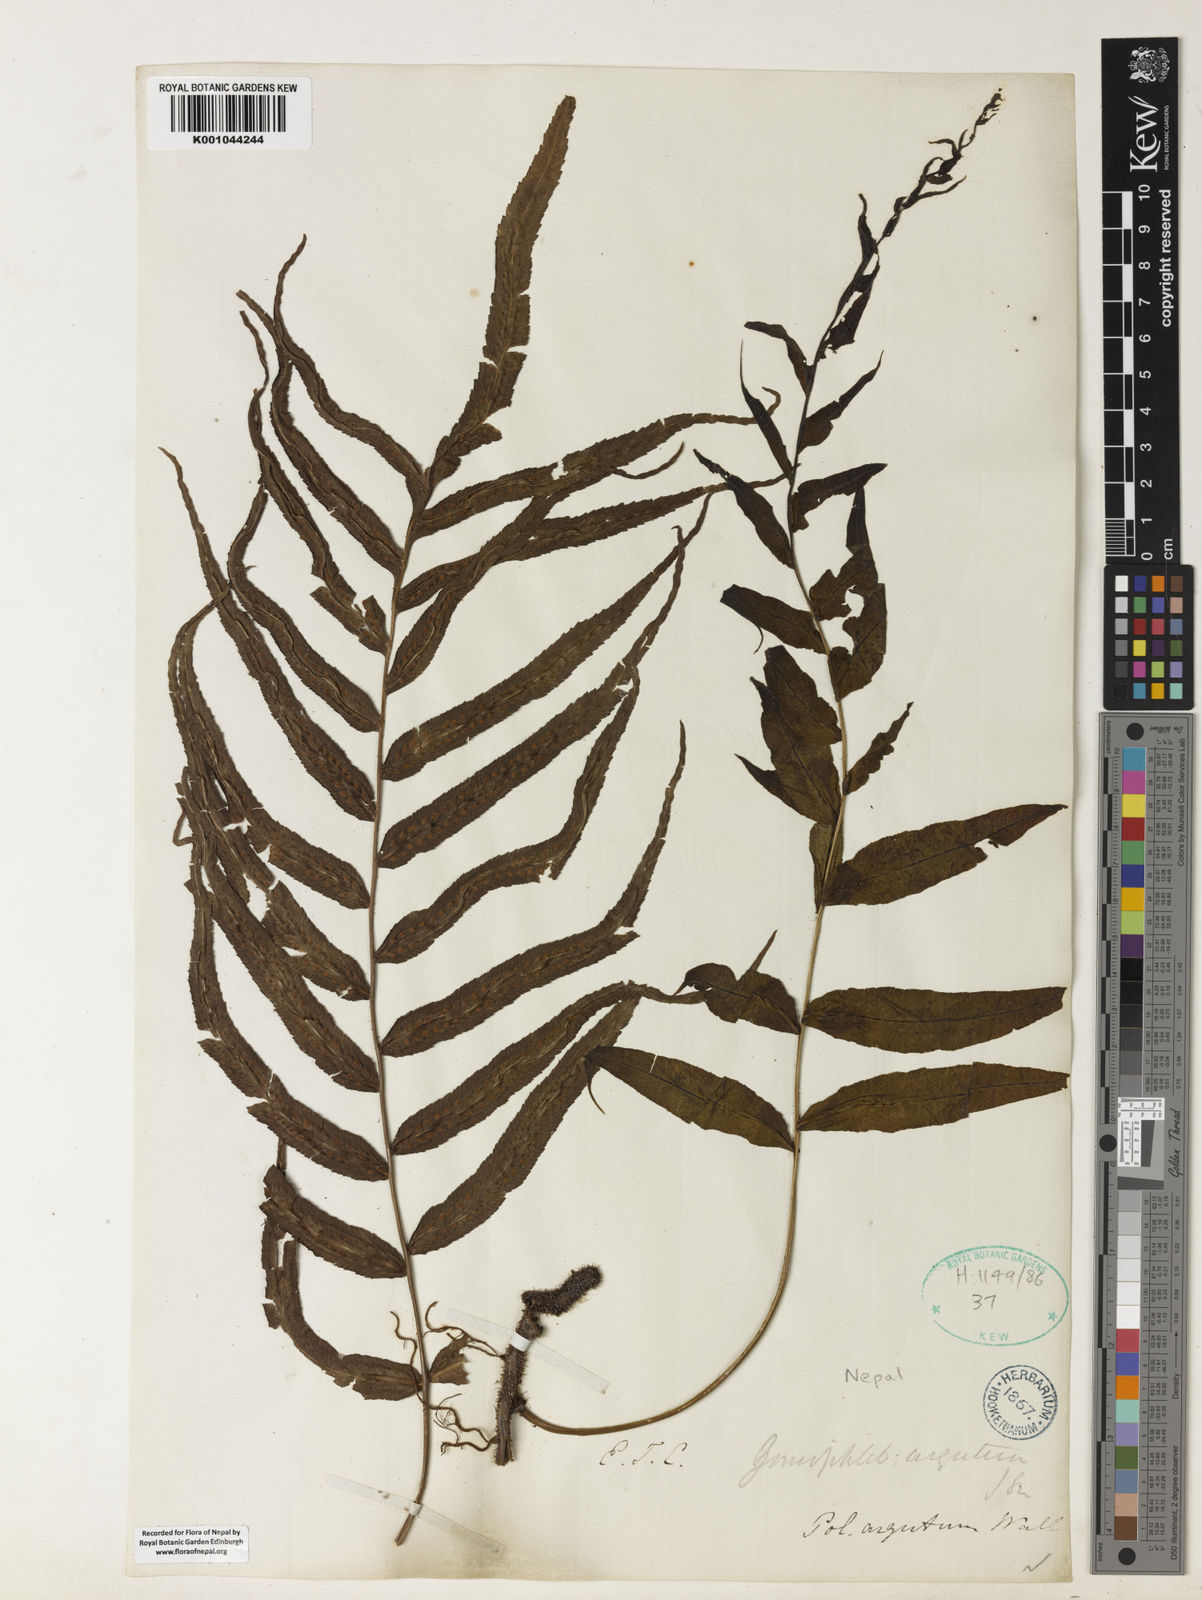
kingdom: Plantae
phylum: Tracheophyta
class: Polypodiopsida
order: Polypodiales
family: Polypodiaceae
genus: Goniophlebium
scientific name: Goniophlebium argutum
